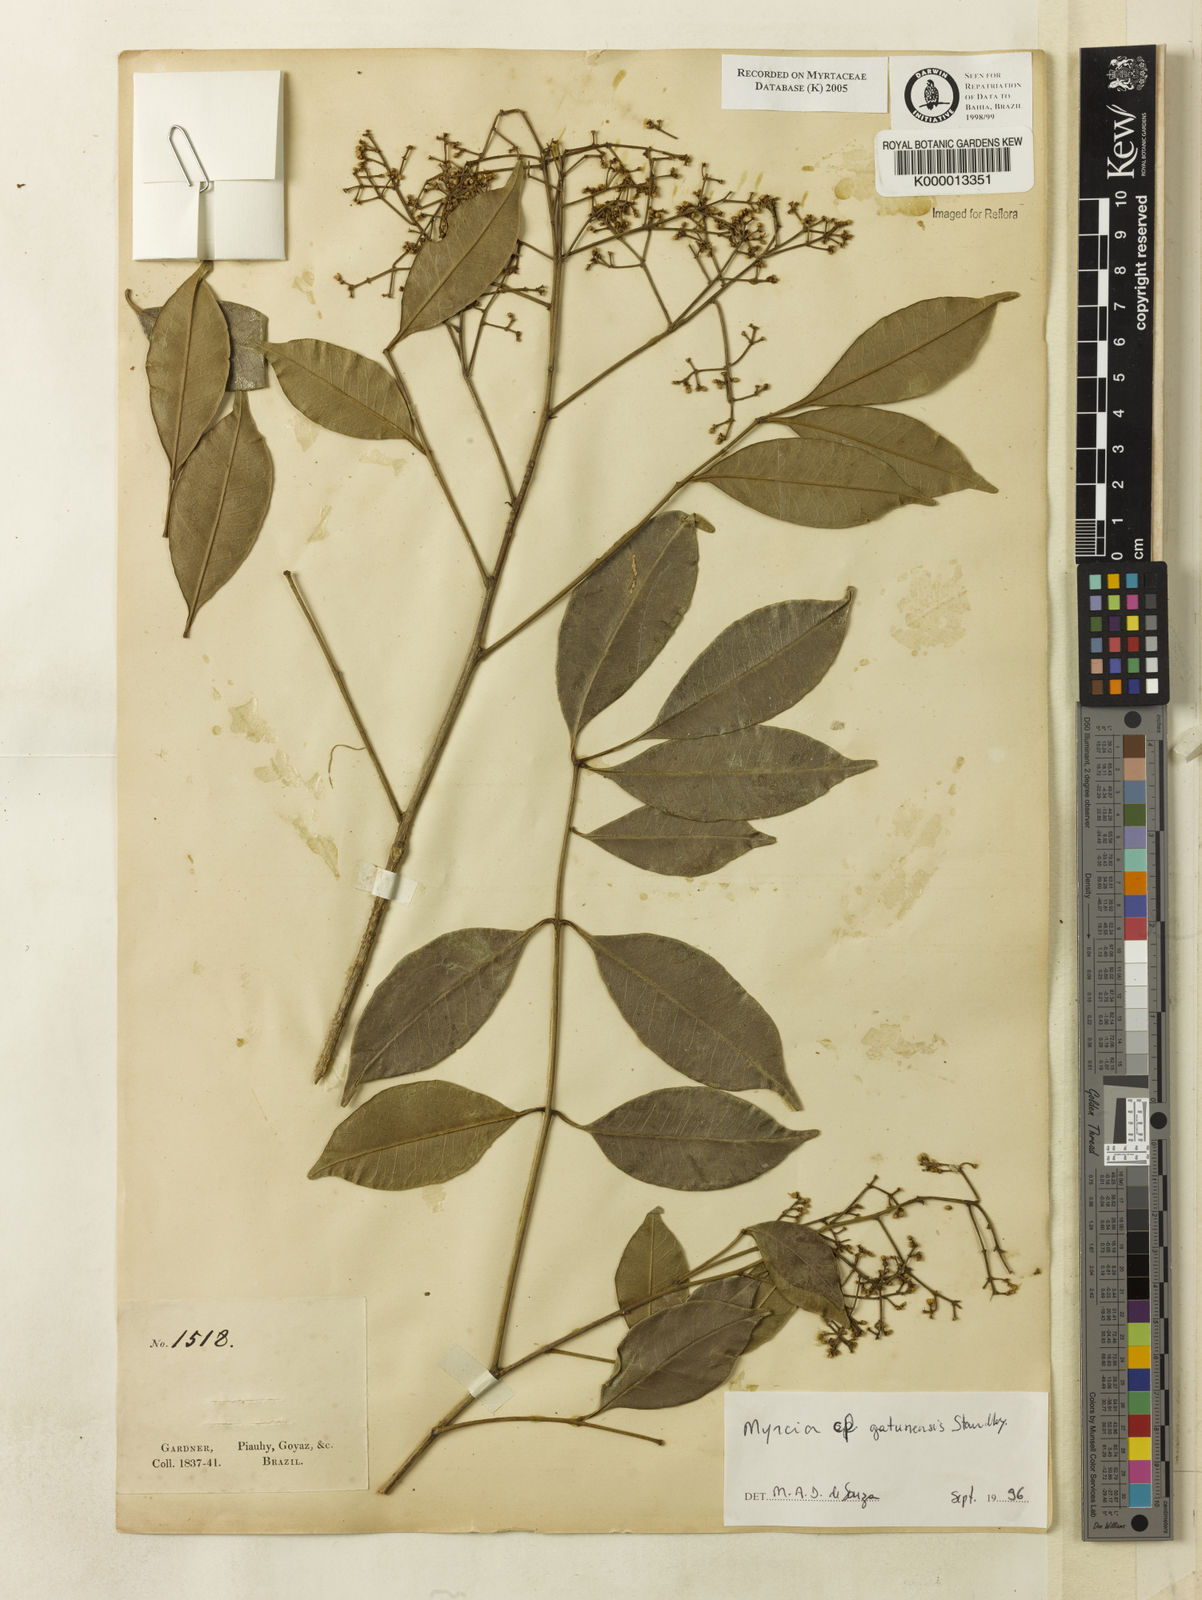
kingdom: Plantae
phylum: Tracheophyta
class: Magnoliopsida
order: Myrtales
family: Myrtaceae
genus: Myrcia
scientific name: Myrcia gatunensis
